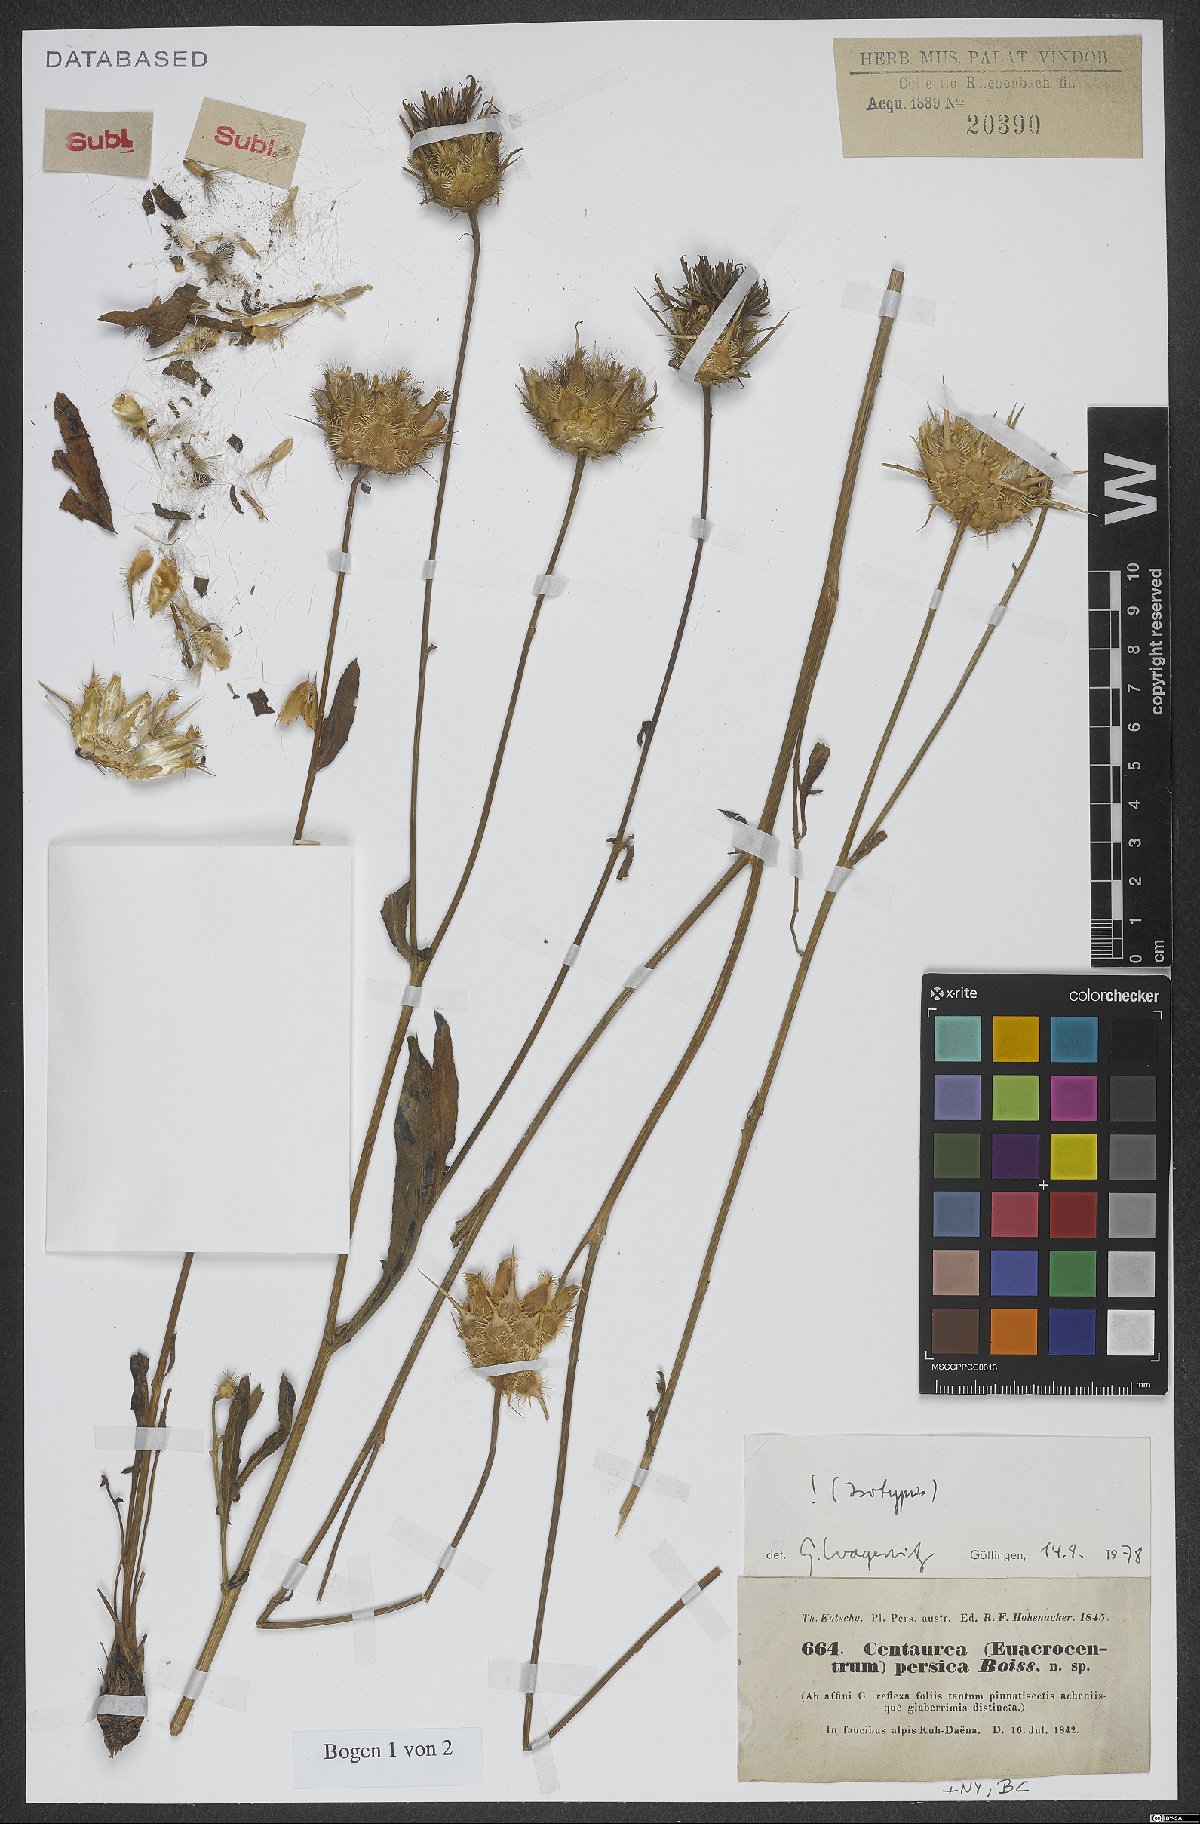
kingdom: Plantae
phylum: Tracheophyta
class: Magnoliopsida
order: Asterales
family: Asteraceae
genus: Centaurea
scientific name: Centaurea persica
